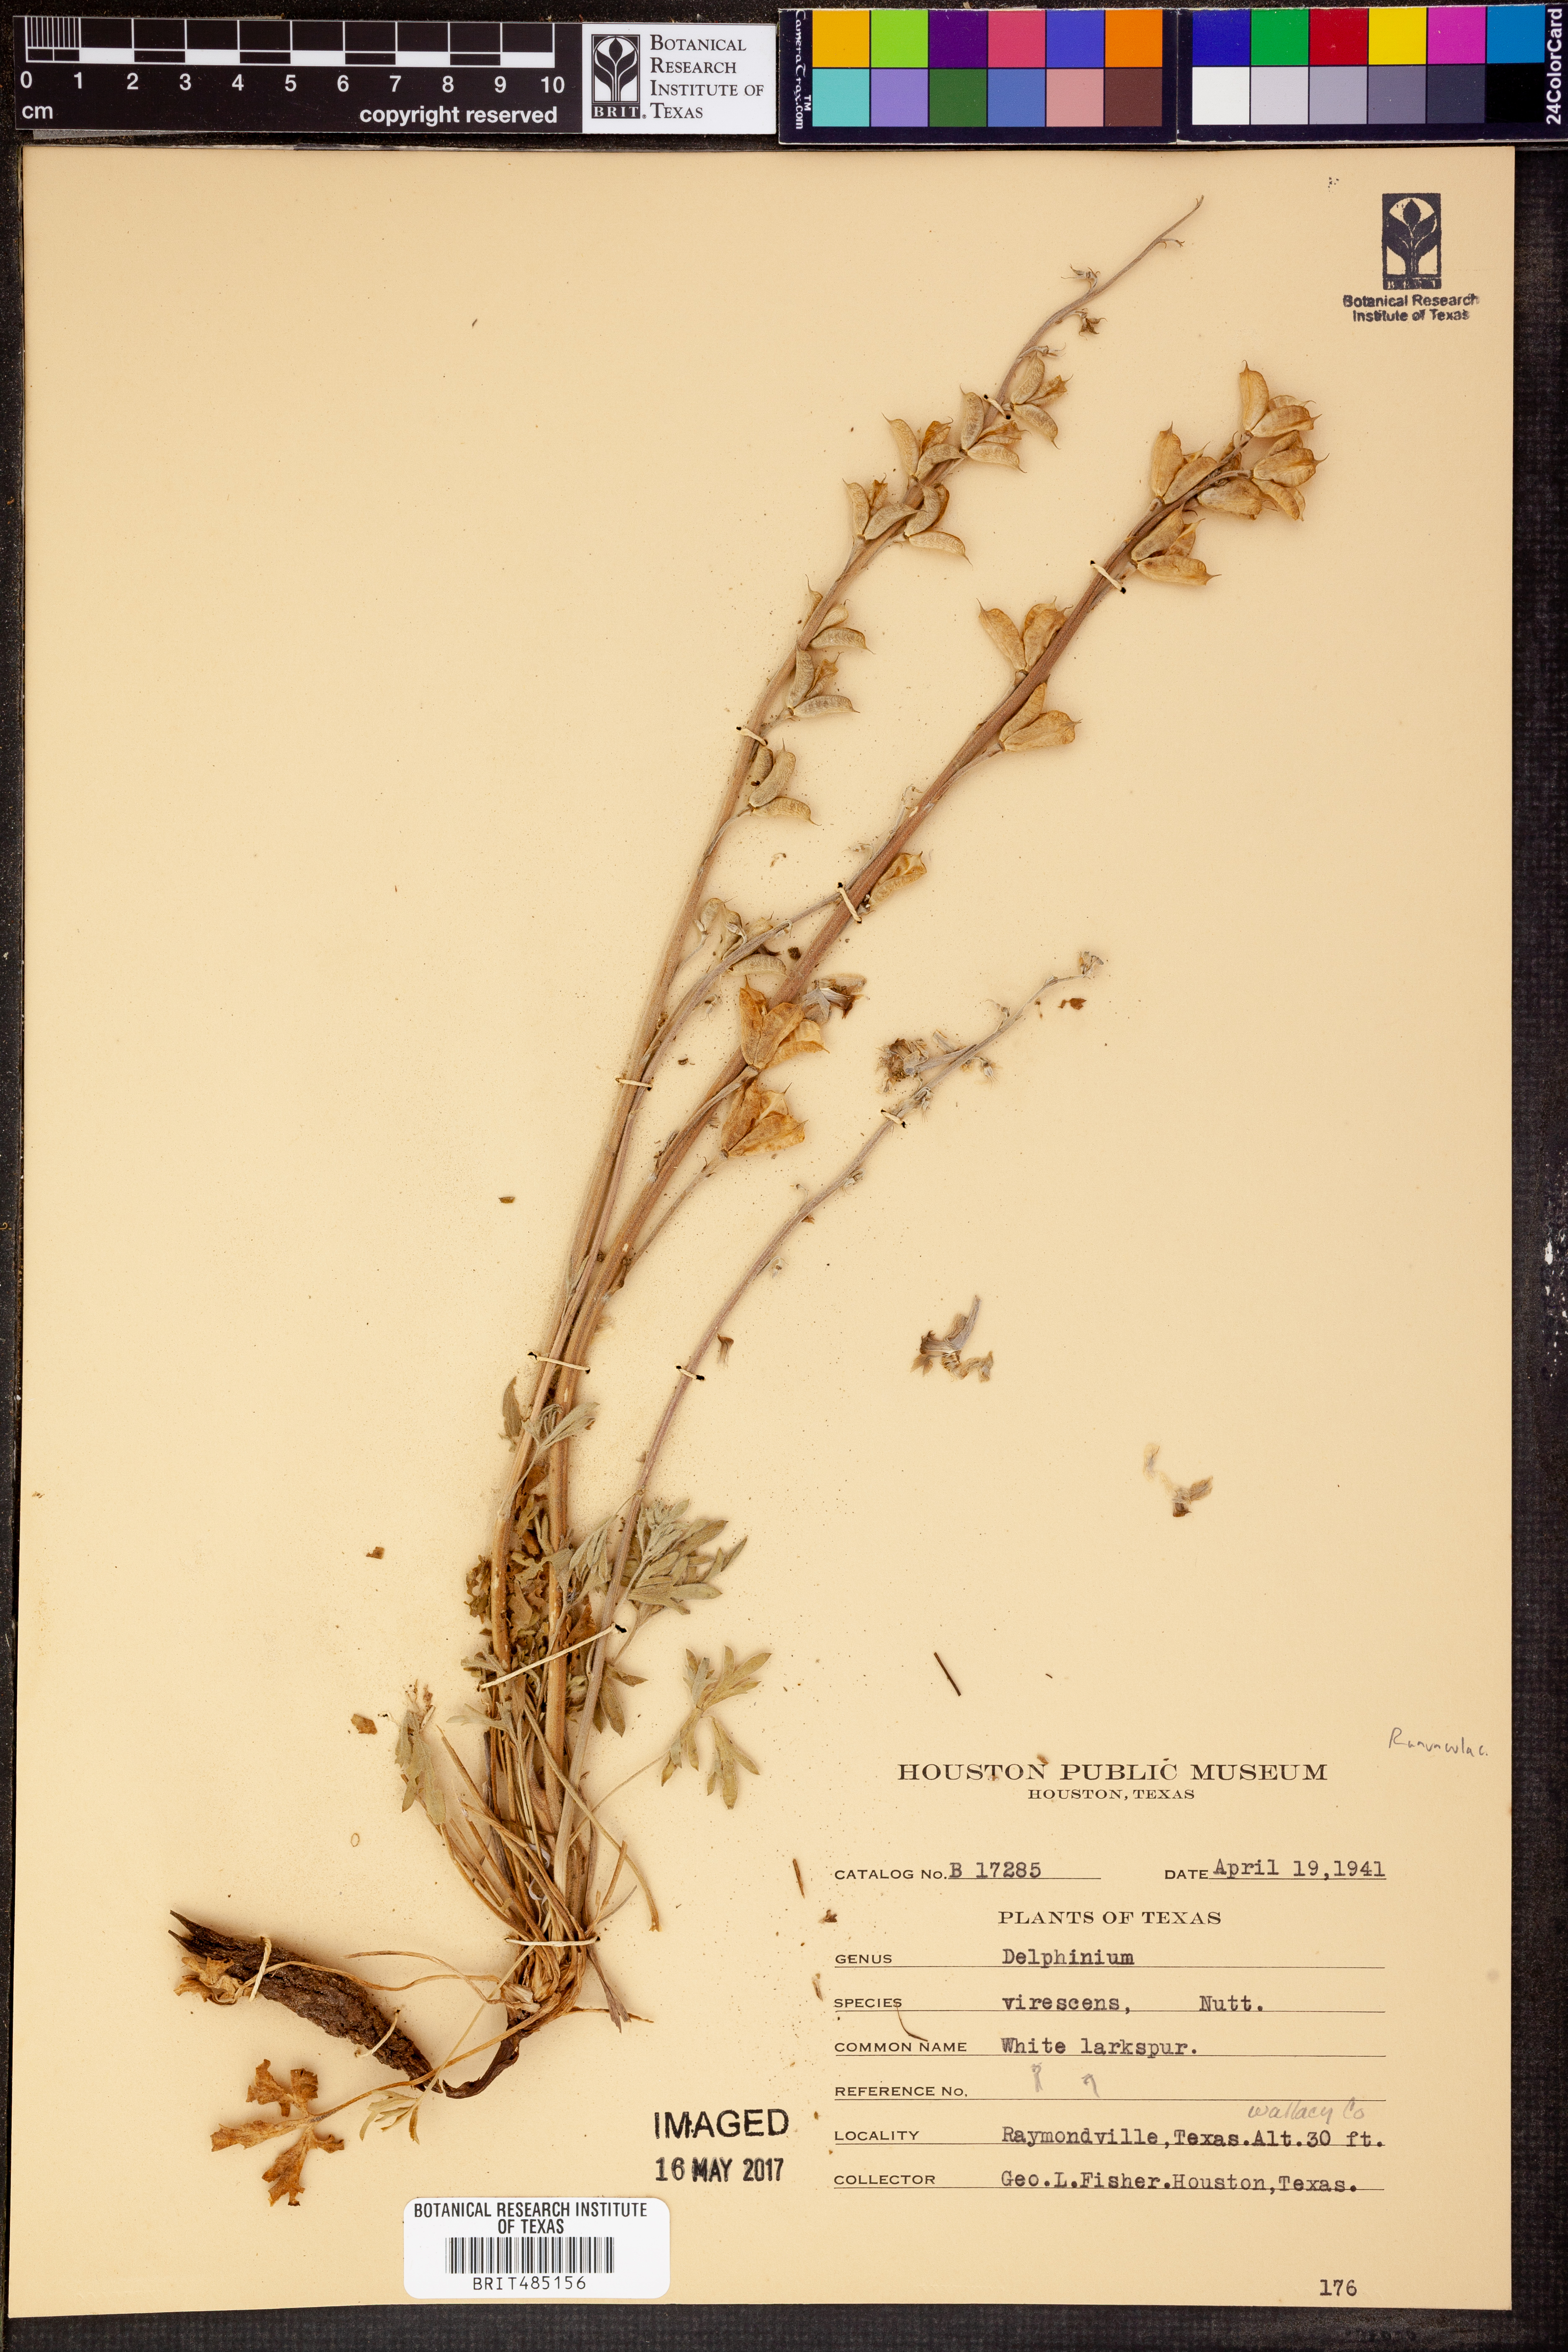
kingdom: Plantae
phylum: Tracheophyta
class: Magnoliopsida
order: Ranunculales
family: Ranunculaceae
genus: Delphinium
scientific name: Delphinium carolinianum
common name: Carolina larkspur
